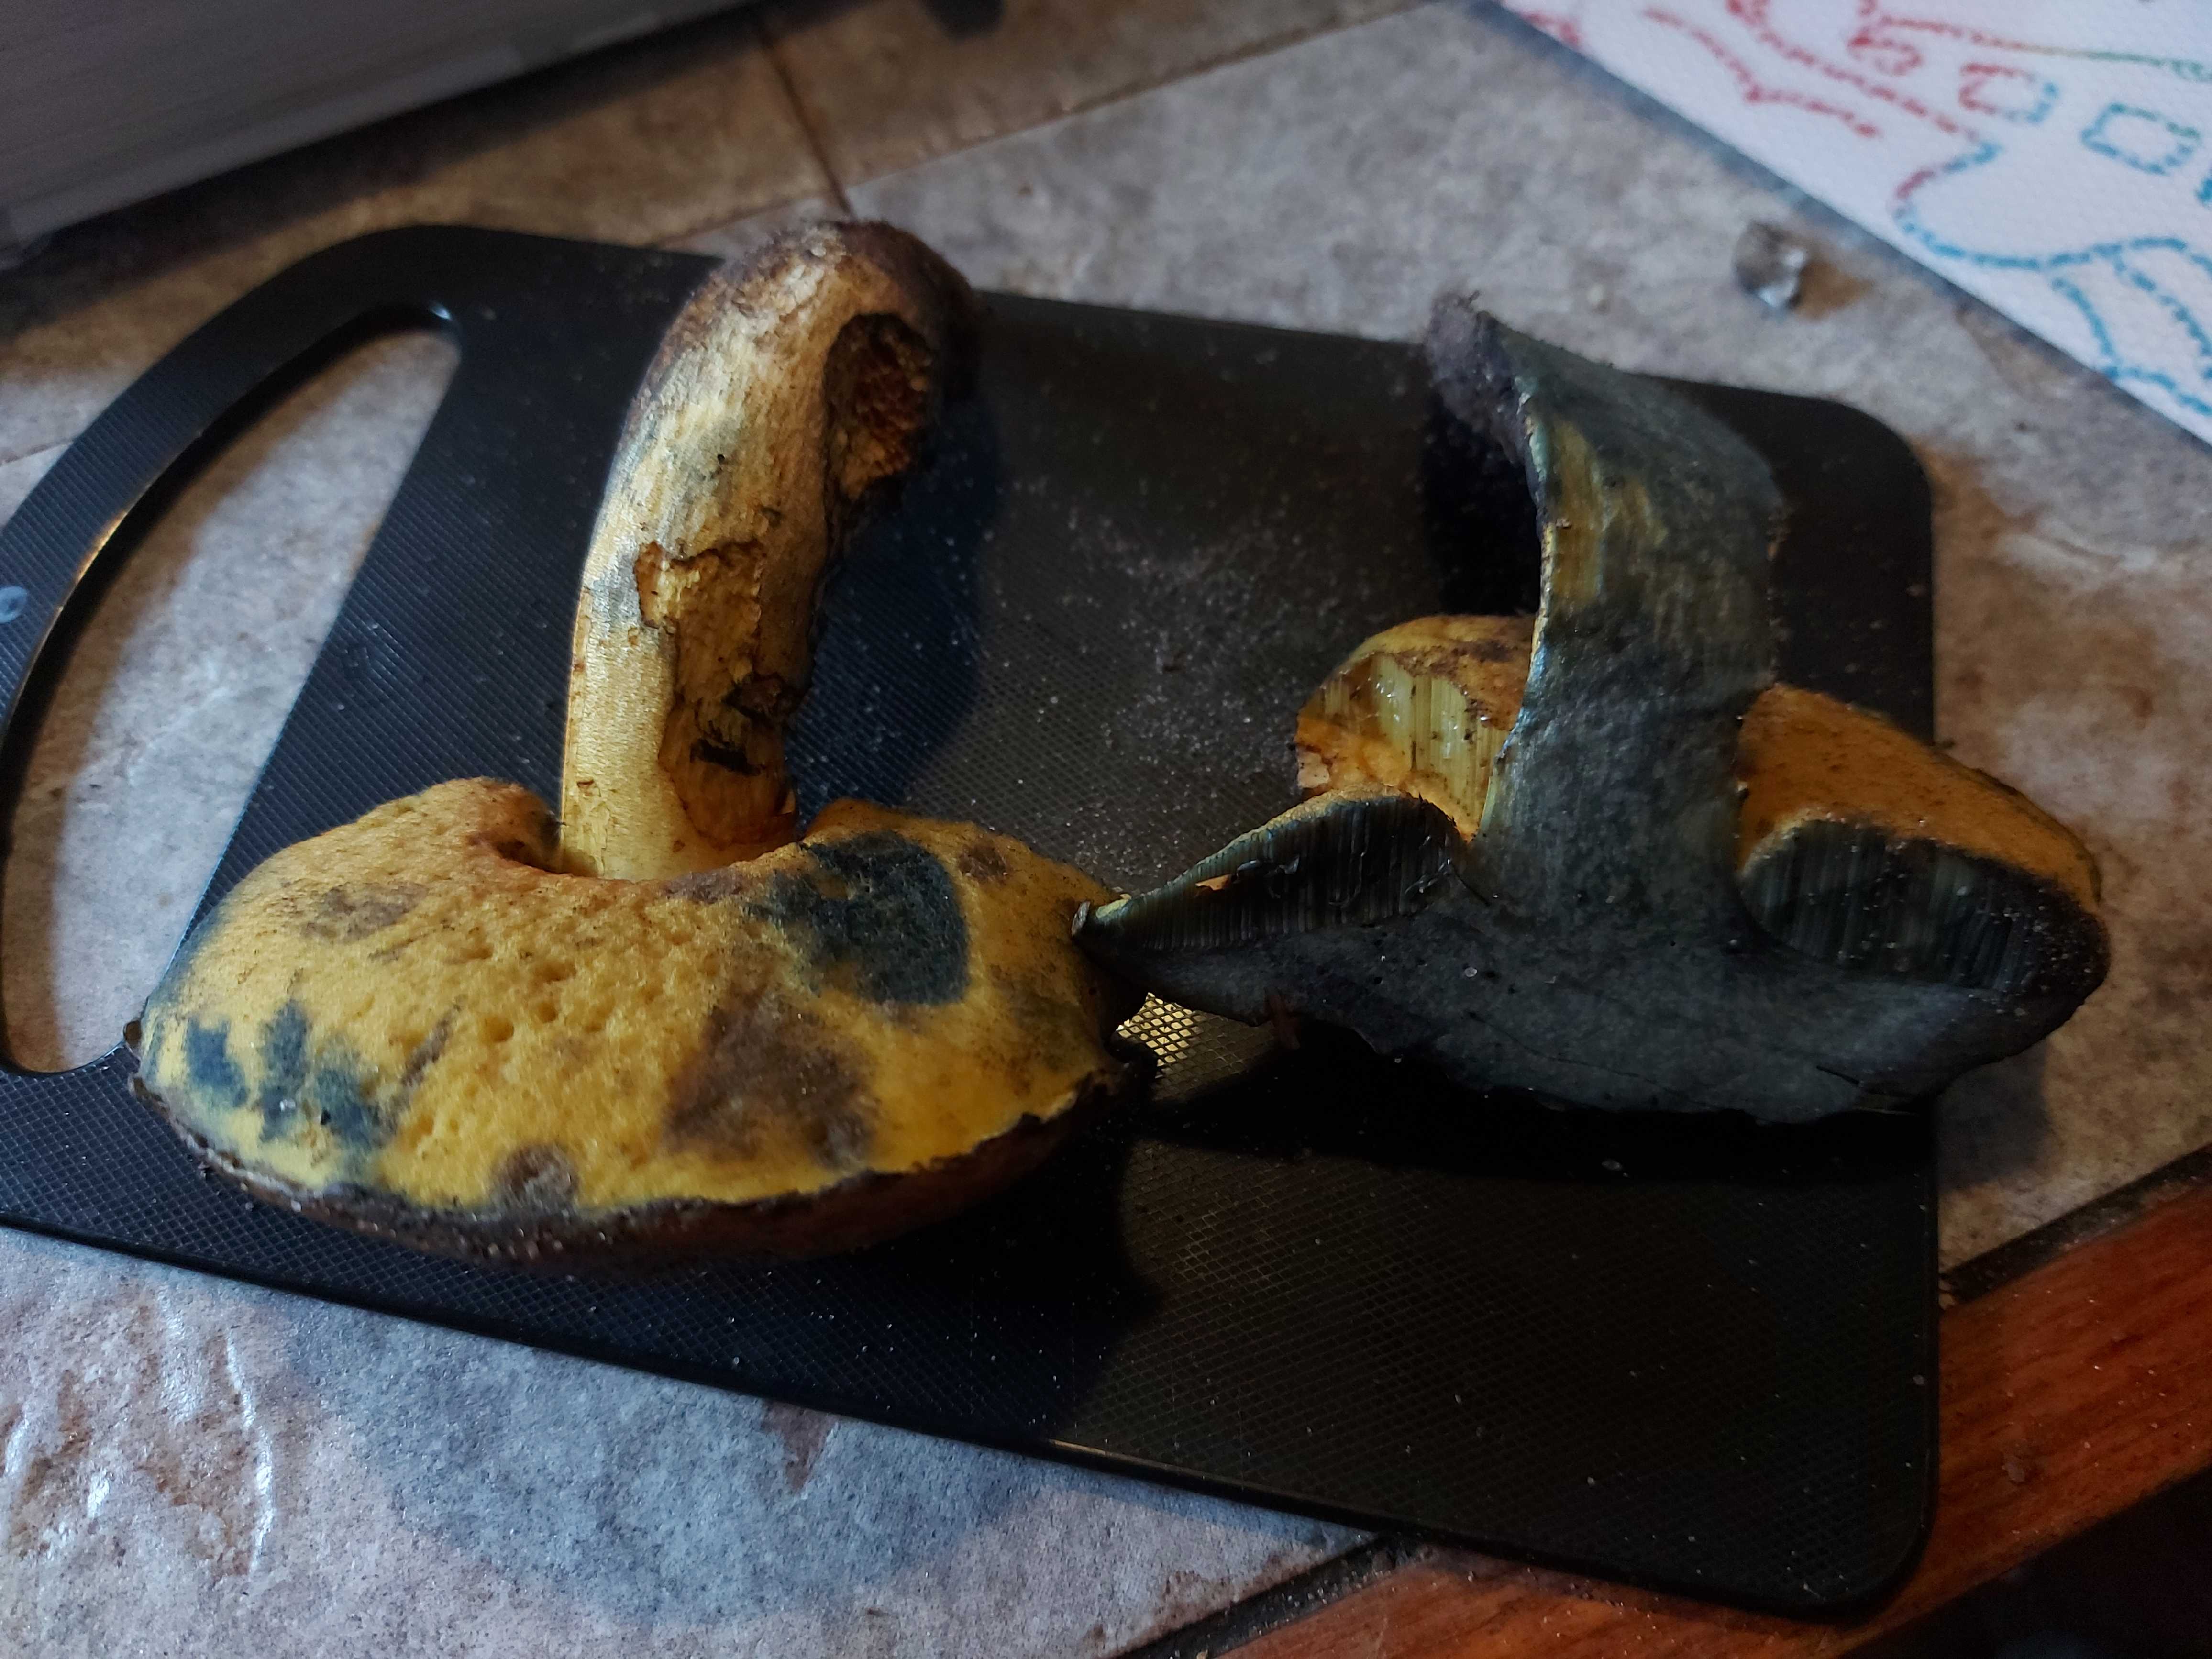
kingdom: Fungi
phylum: Basidiomycota
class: Agaricomycetes
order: Boletales
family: Boletaceae
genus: Neoboletus
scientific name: Neoboletus erythropus
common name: punktstokket indigorørhat
